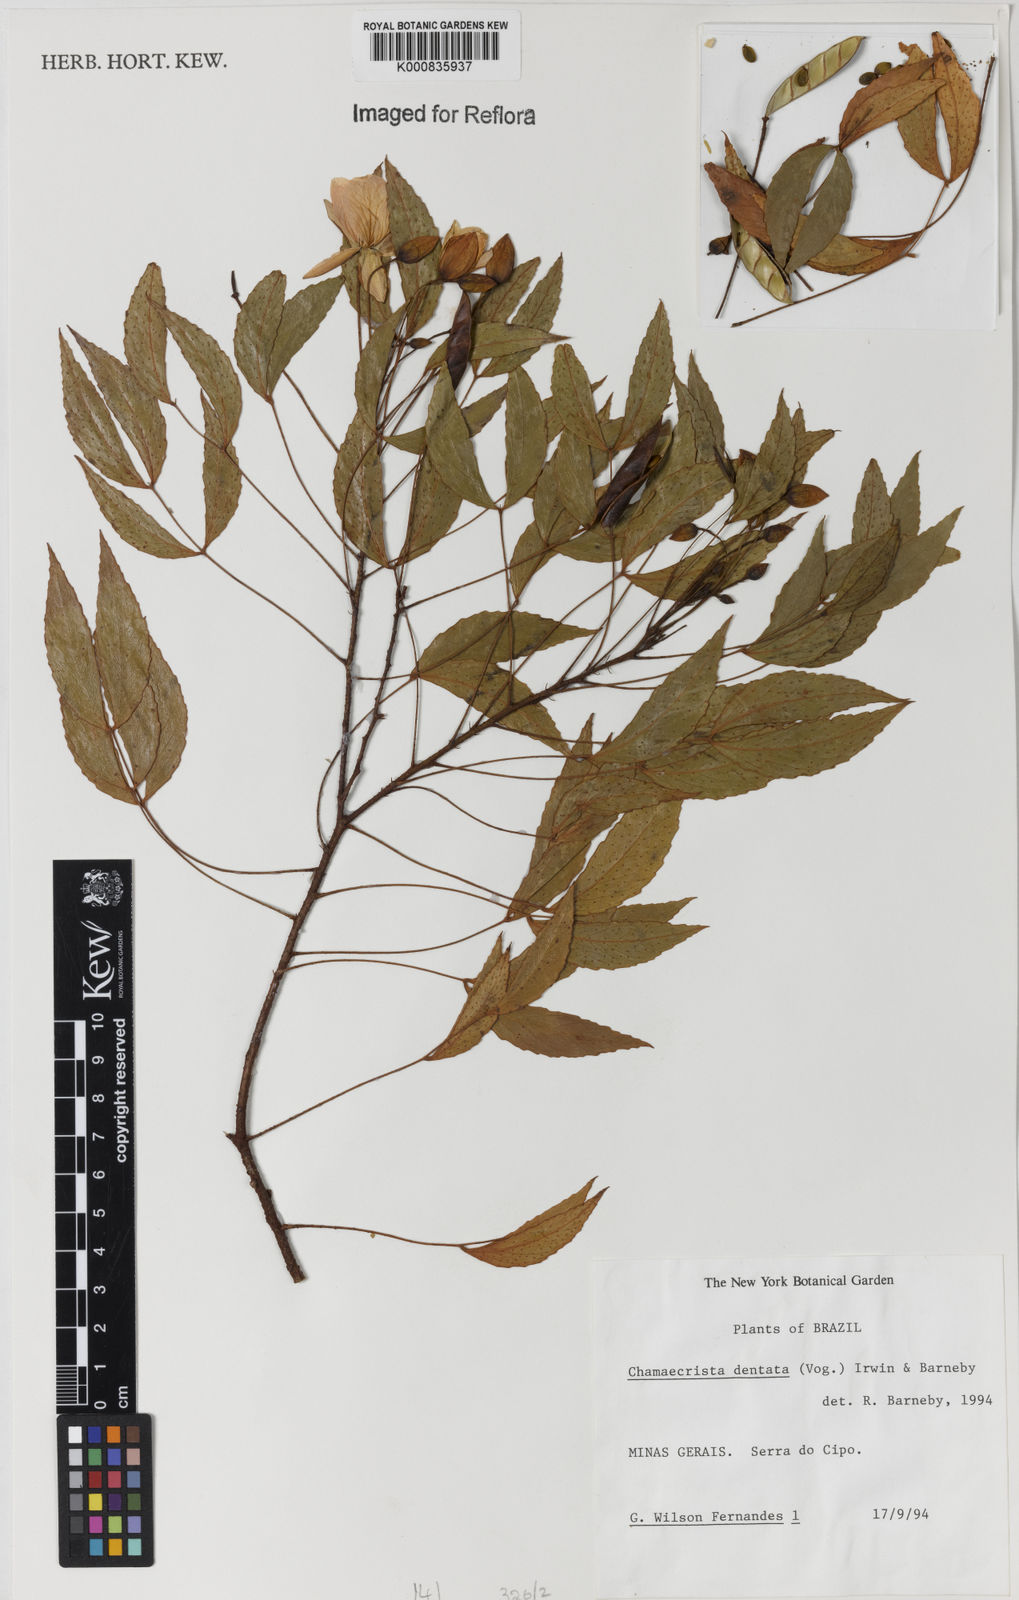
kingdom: Plantae
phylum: Tracheophyta
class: Magnoliopsida
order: Fabales
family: Fabaceae
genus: Chamaecrista
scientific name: Chamaecrista dentata
